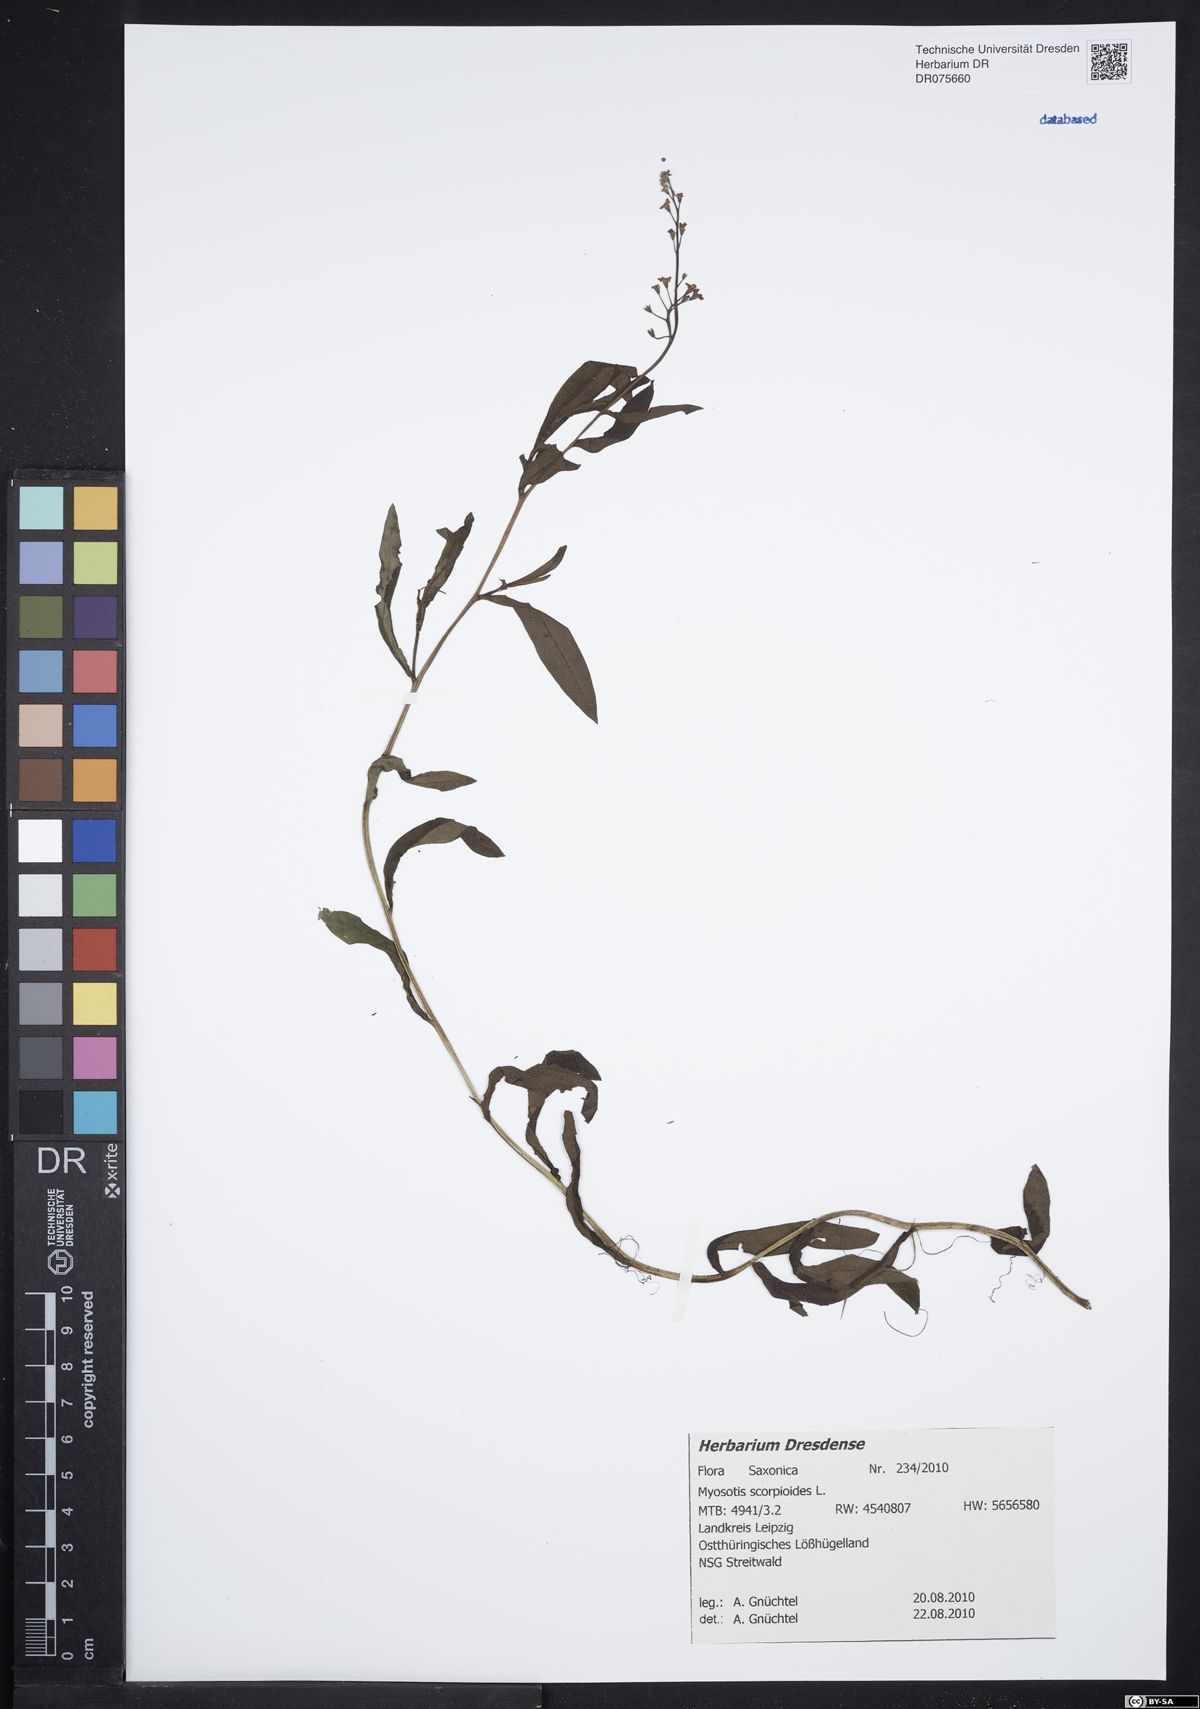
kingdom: Plantae
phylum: Tracheophyta
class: Magnoliopsida
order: Boraginales
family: Boraginaceae
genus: Myosotis
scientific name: Myosotis scorpioides
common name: Water forget-me-not
